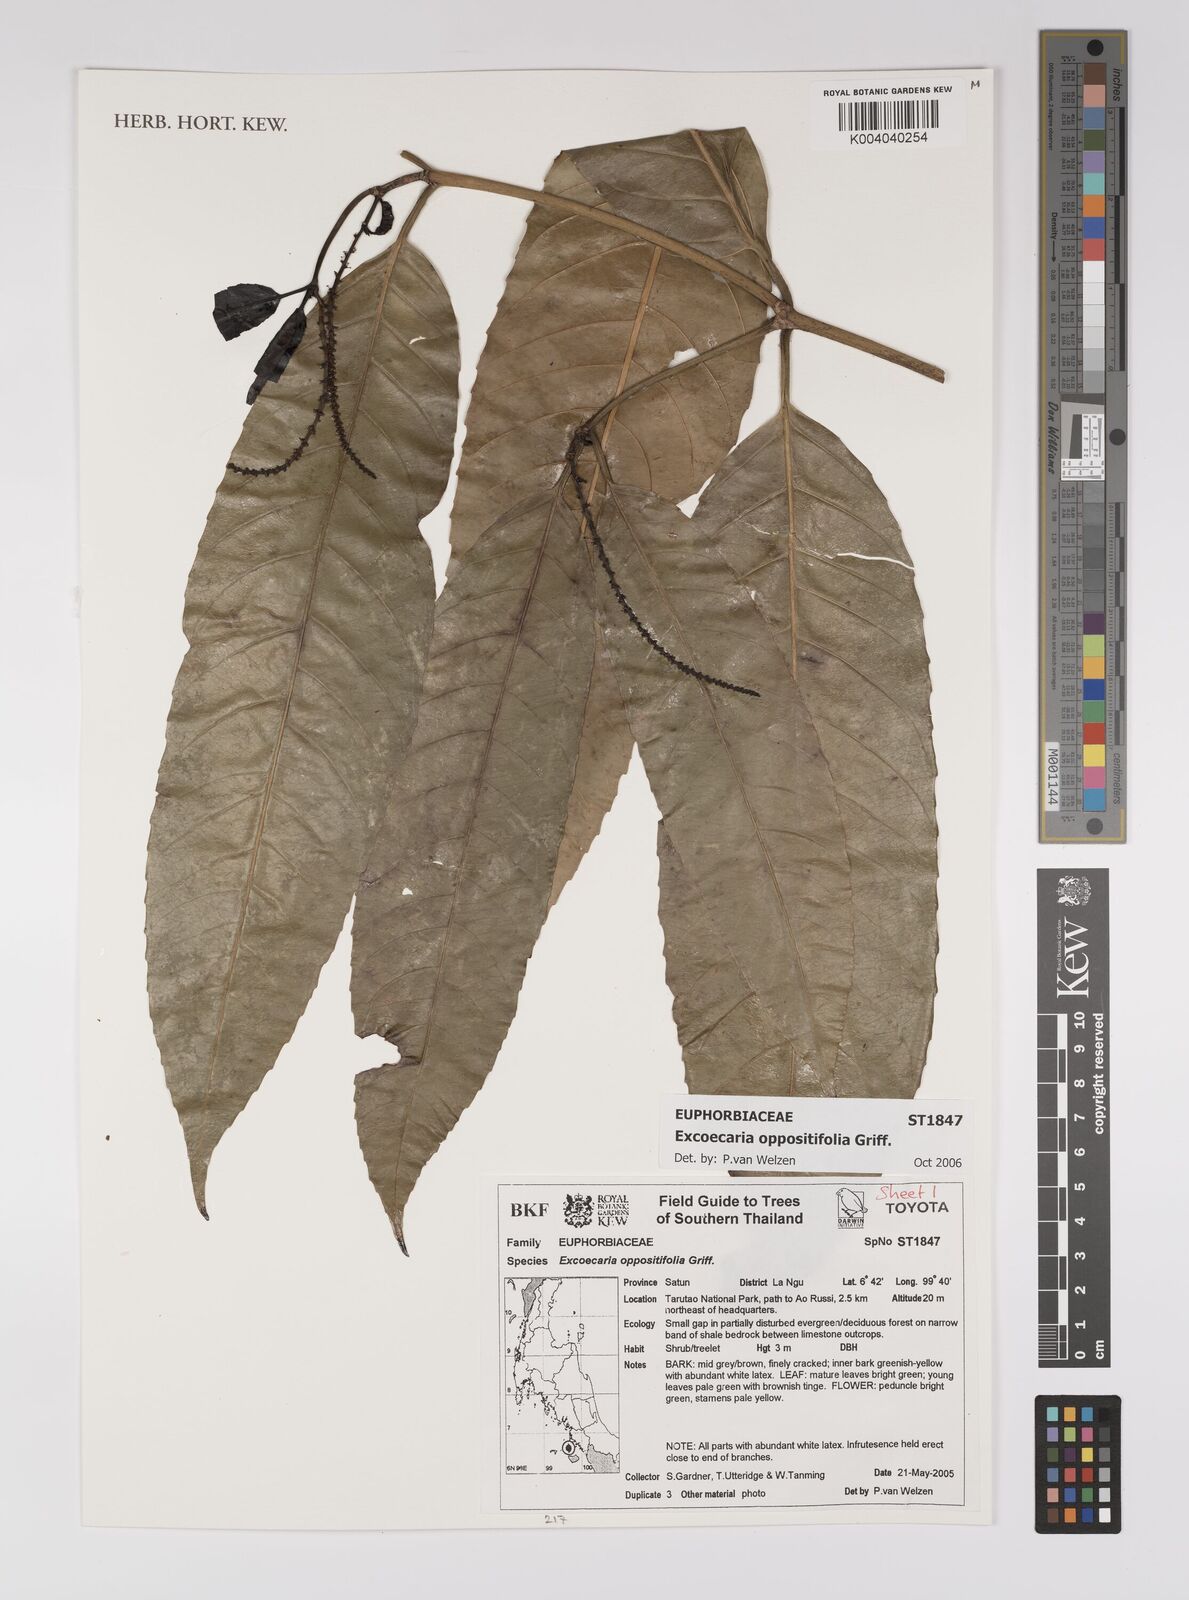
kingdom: Plantae
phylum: Tracheophyta
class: Magnoliopsida
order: Malpighiales
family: Euphorbiaceae
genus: Excoecaria
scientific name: Excoecaria oppositifolia
